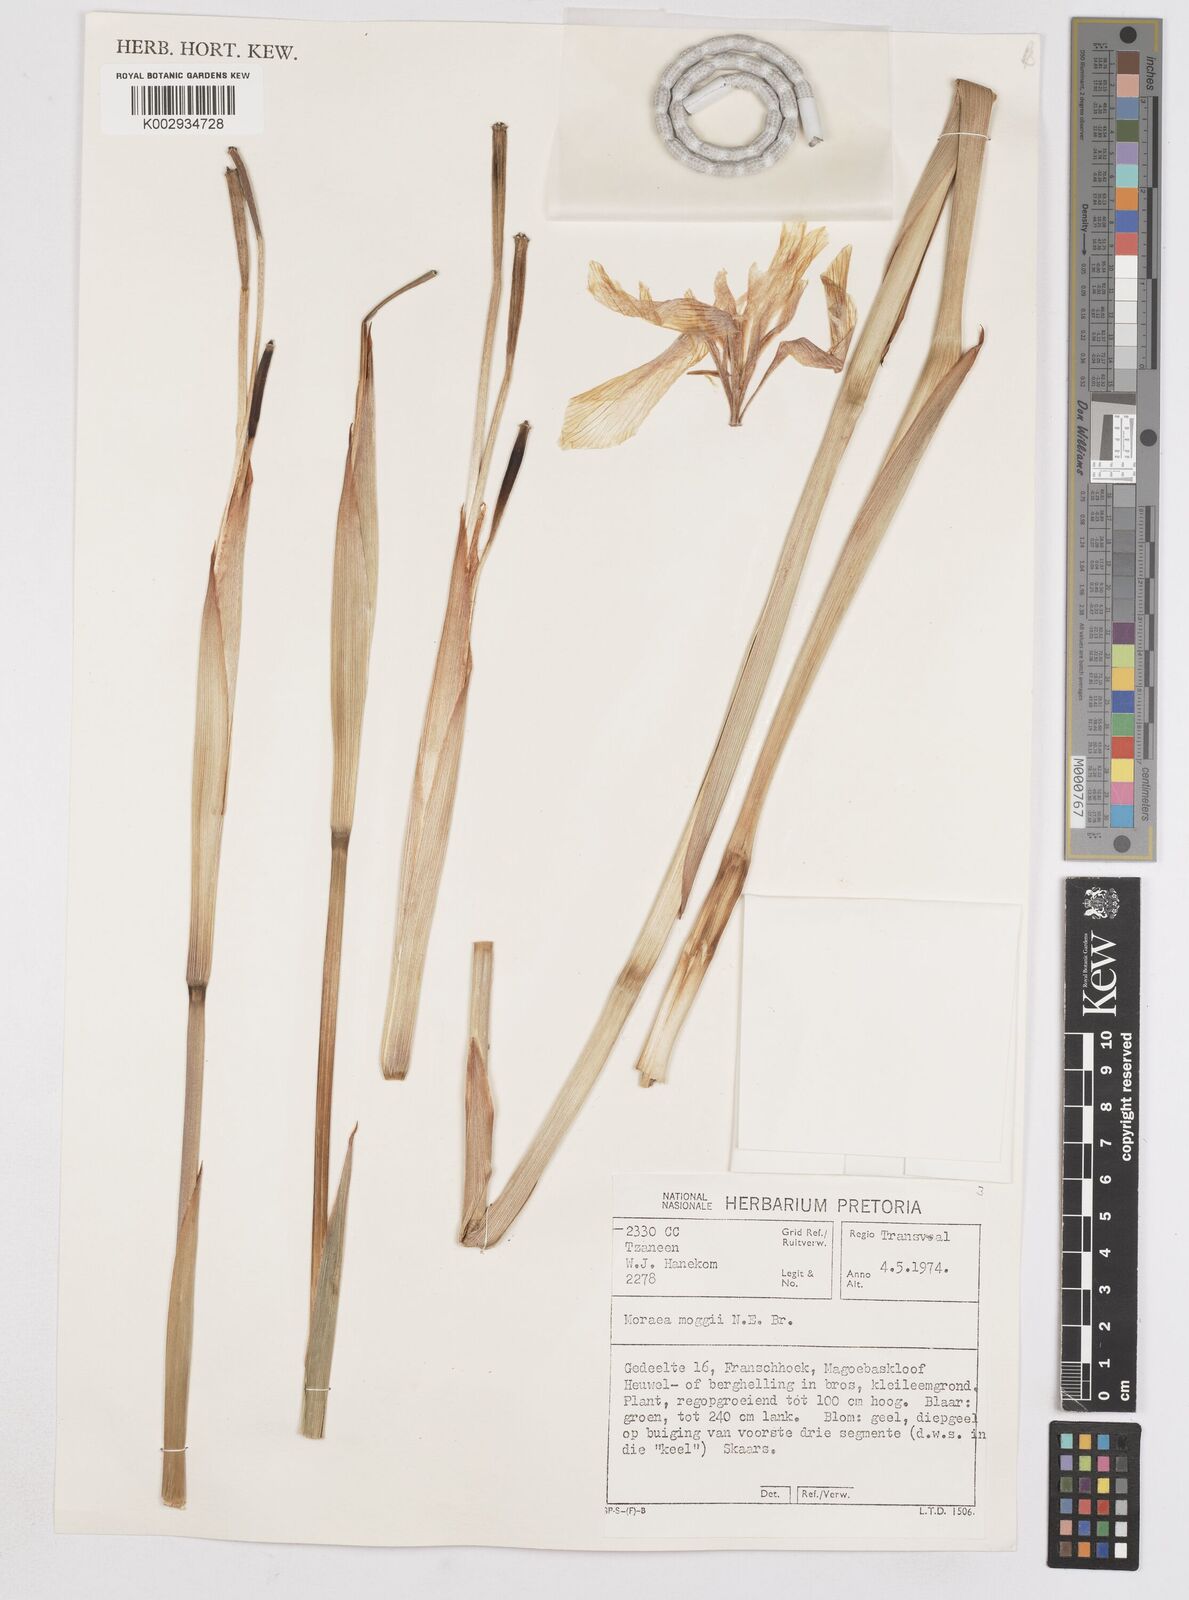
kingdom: Plantae
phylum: Tracheophyta
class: Liliopsida
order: Asparagales
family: Iridaceae
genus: Moraea
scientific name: Moraea moggii
